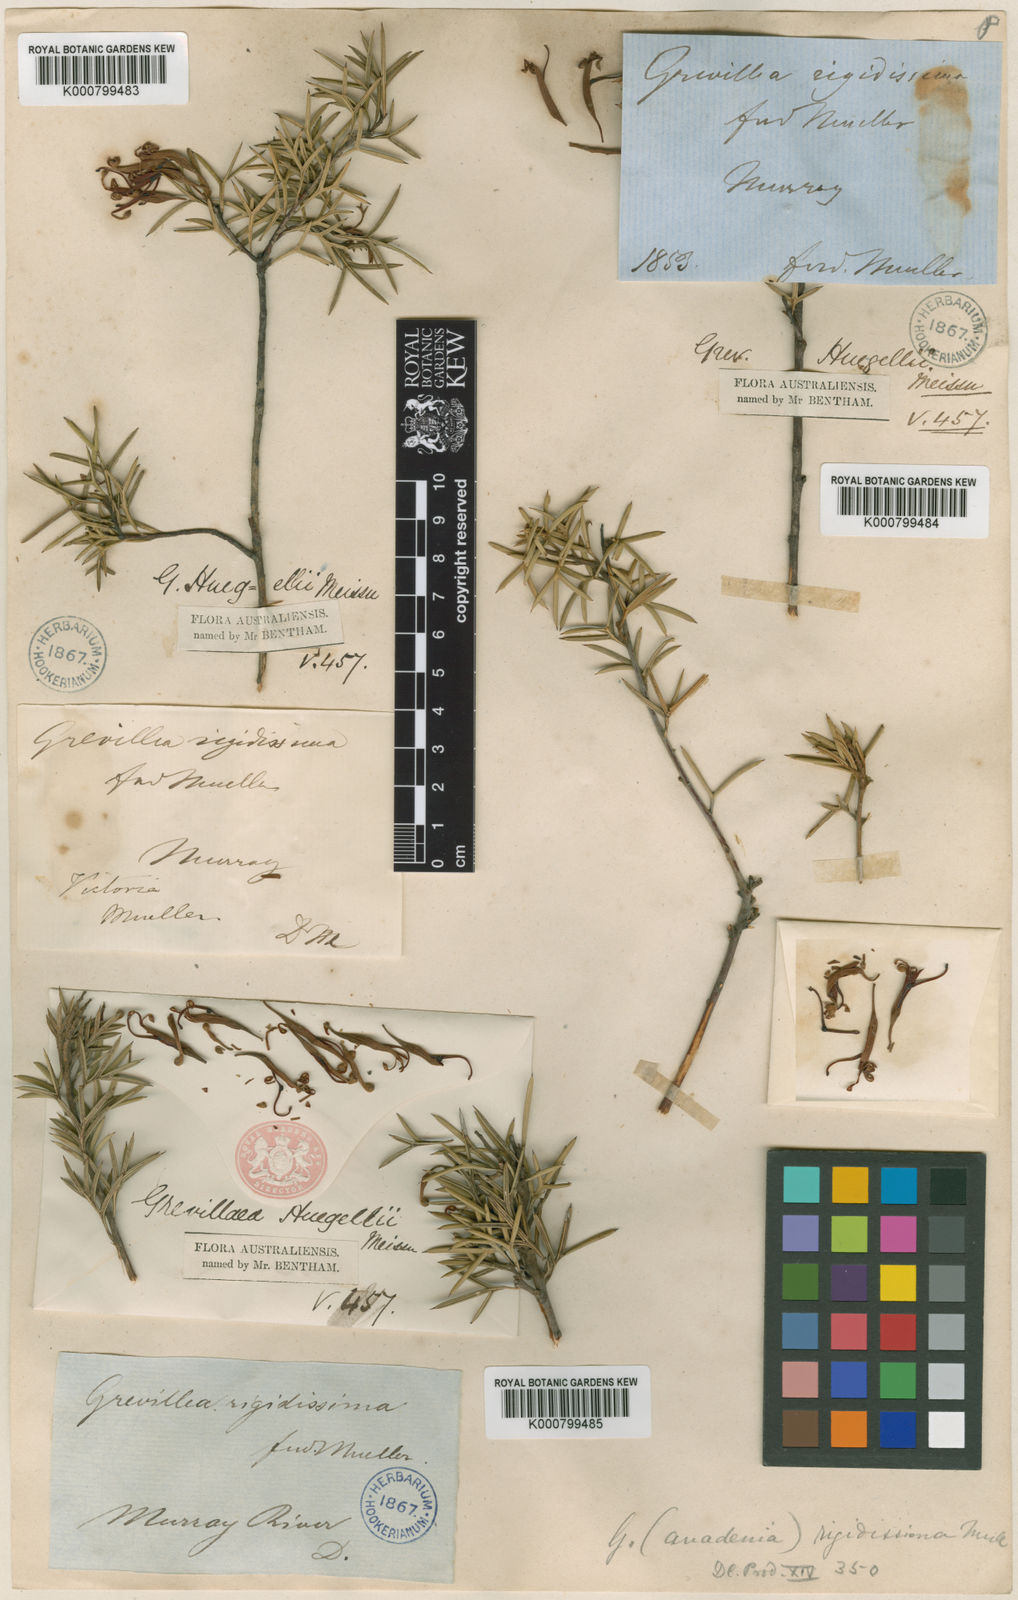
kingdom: Plantae
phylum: Tracheophyta
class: Magnoliopsida
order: Proteales
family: Proteaceae
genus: Grevillea
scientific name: Grevillea huegelii
